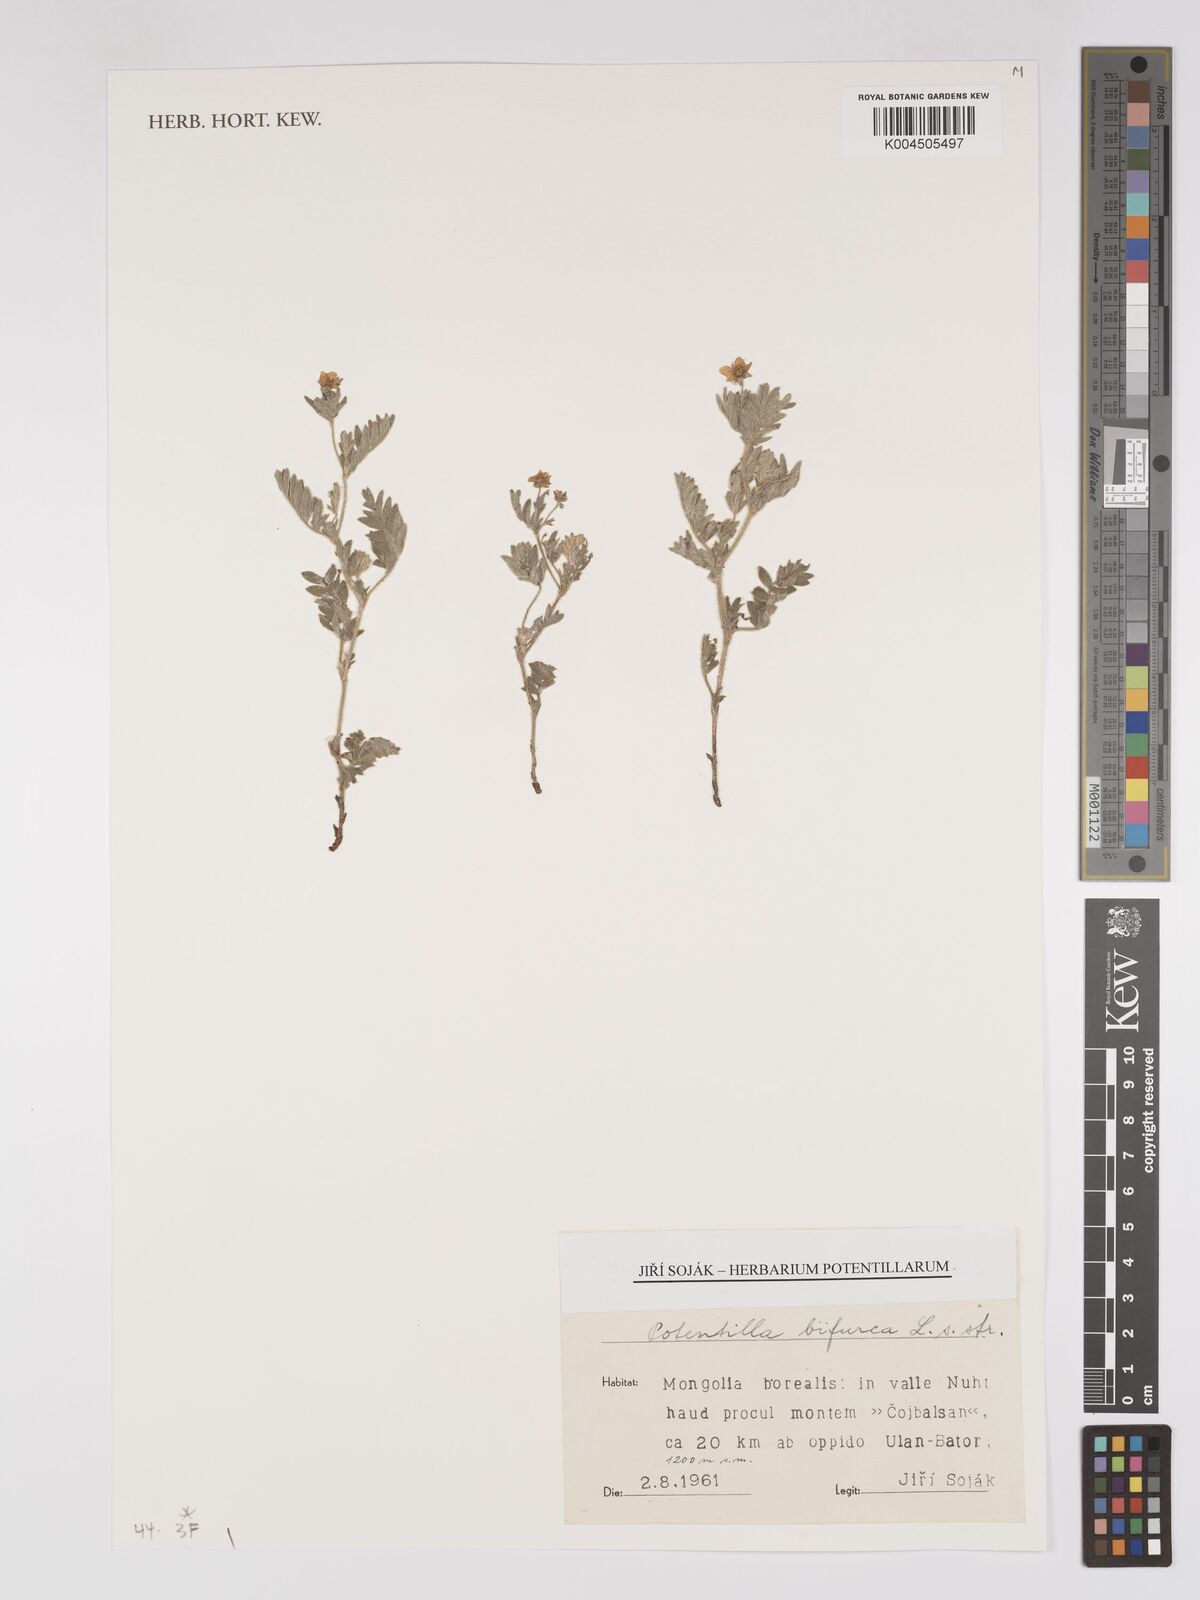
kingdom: Plantae
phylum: Tracheophyta
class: Magnoliopsida
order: Rosales
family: Rosaceae
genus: Sibbaldianthe
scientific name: Sibbaldianthe bifurca
